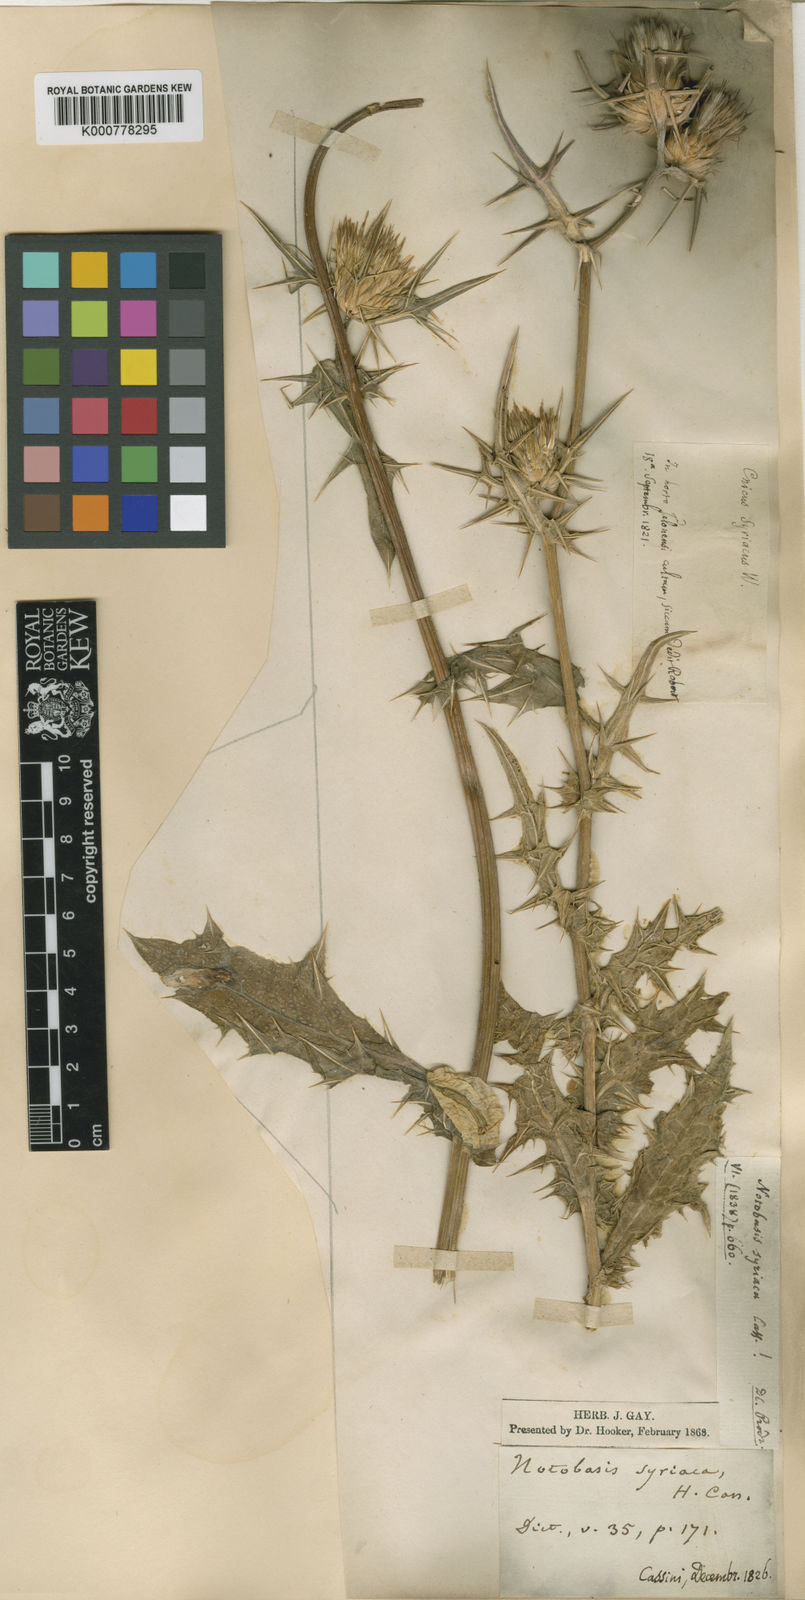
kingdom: Plantae
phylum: Tracheophyta
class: Magnoliopsida
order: Asterales
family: Asteraceae
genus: Notobasis
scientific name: Notobasis syriaca
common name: Syrian thistle
